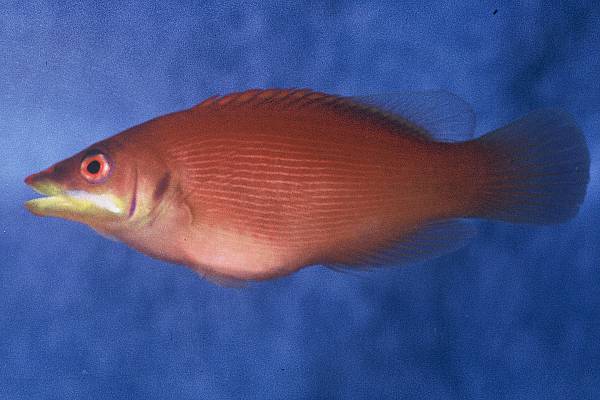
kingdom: Animalia
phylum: Chordata
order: Perciformes
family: Labridae
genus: Pseudocheilinus
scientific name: Pseudocheilinus evanidus
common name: Disappearing wrasse
